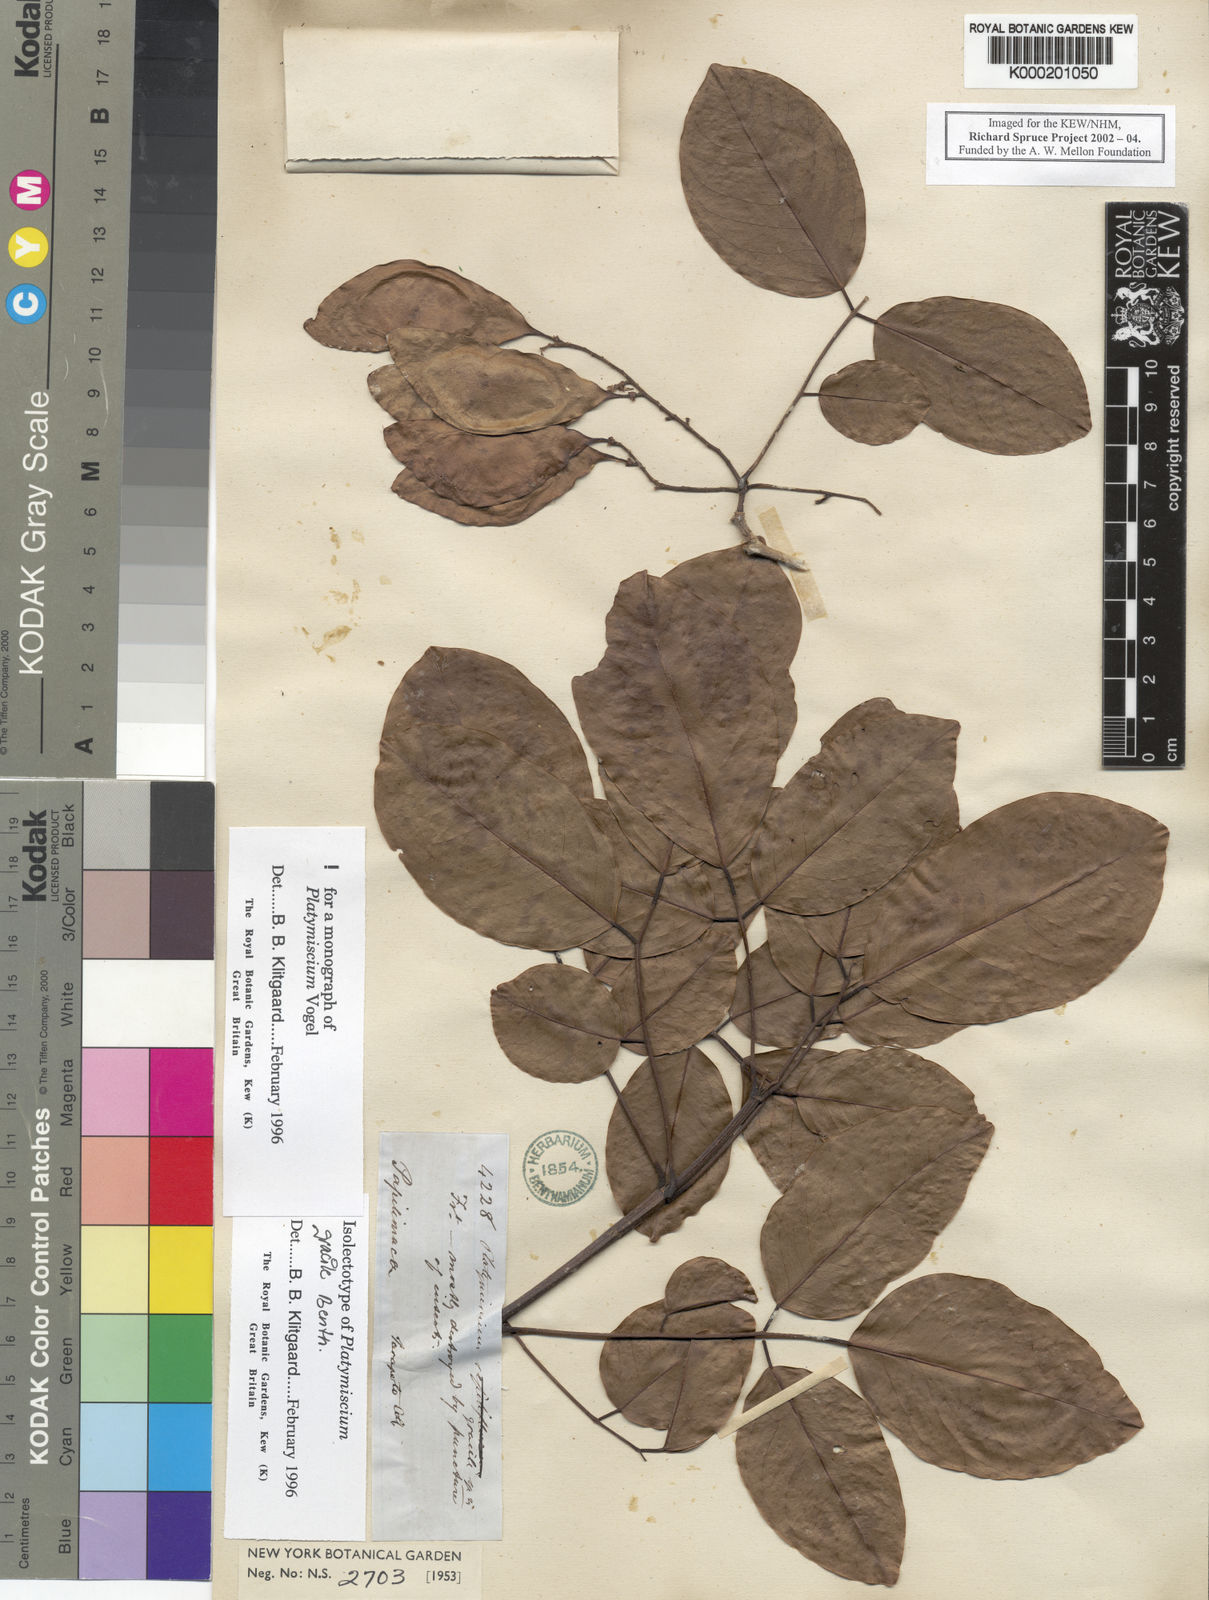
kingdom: Plantae
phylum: Tracheophyta
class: Magnoliopsida
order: Fabales
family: Fabaceae
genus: Platymiscium
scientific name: Platymiscium gracile
